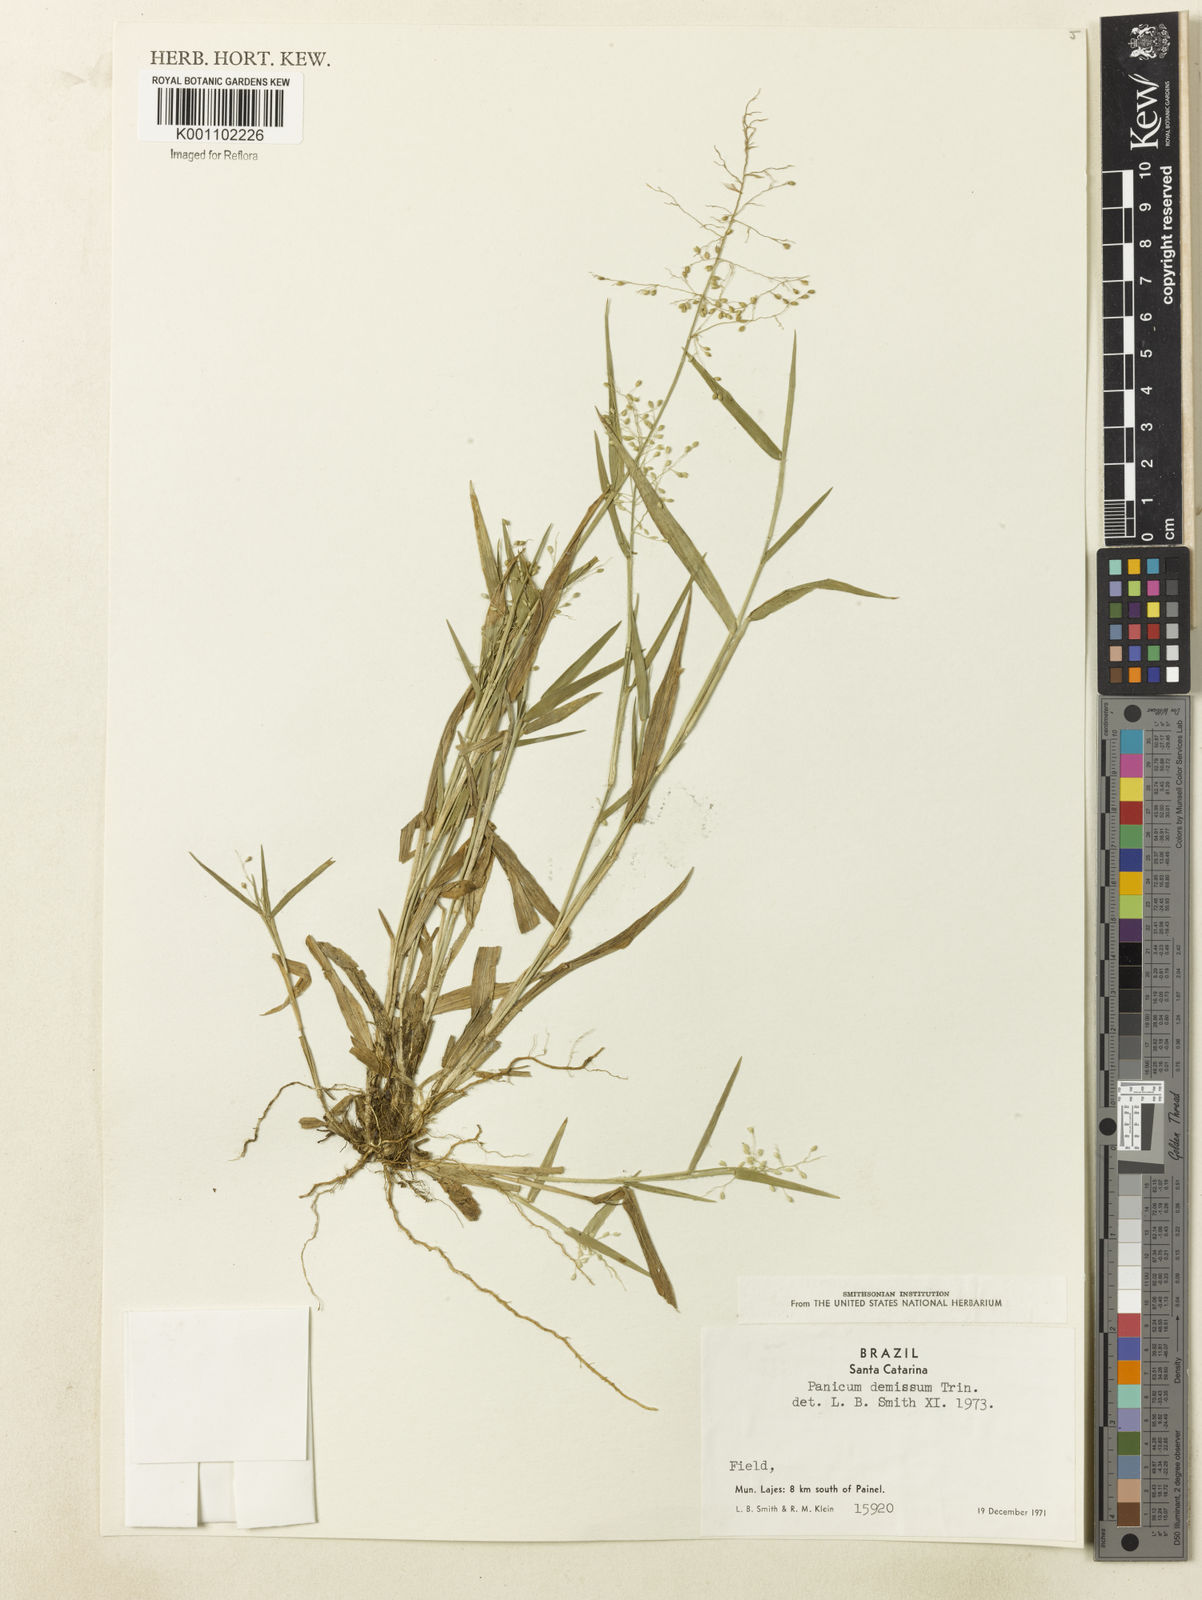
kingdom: Plantae
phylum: Tracheophyta
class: Liliopsida
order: Poales
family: Poaceae
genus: Dichanthelium
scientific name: Dichanthelium sabulorum
